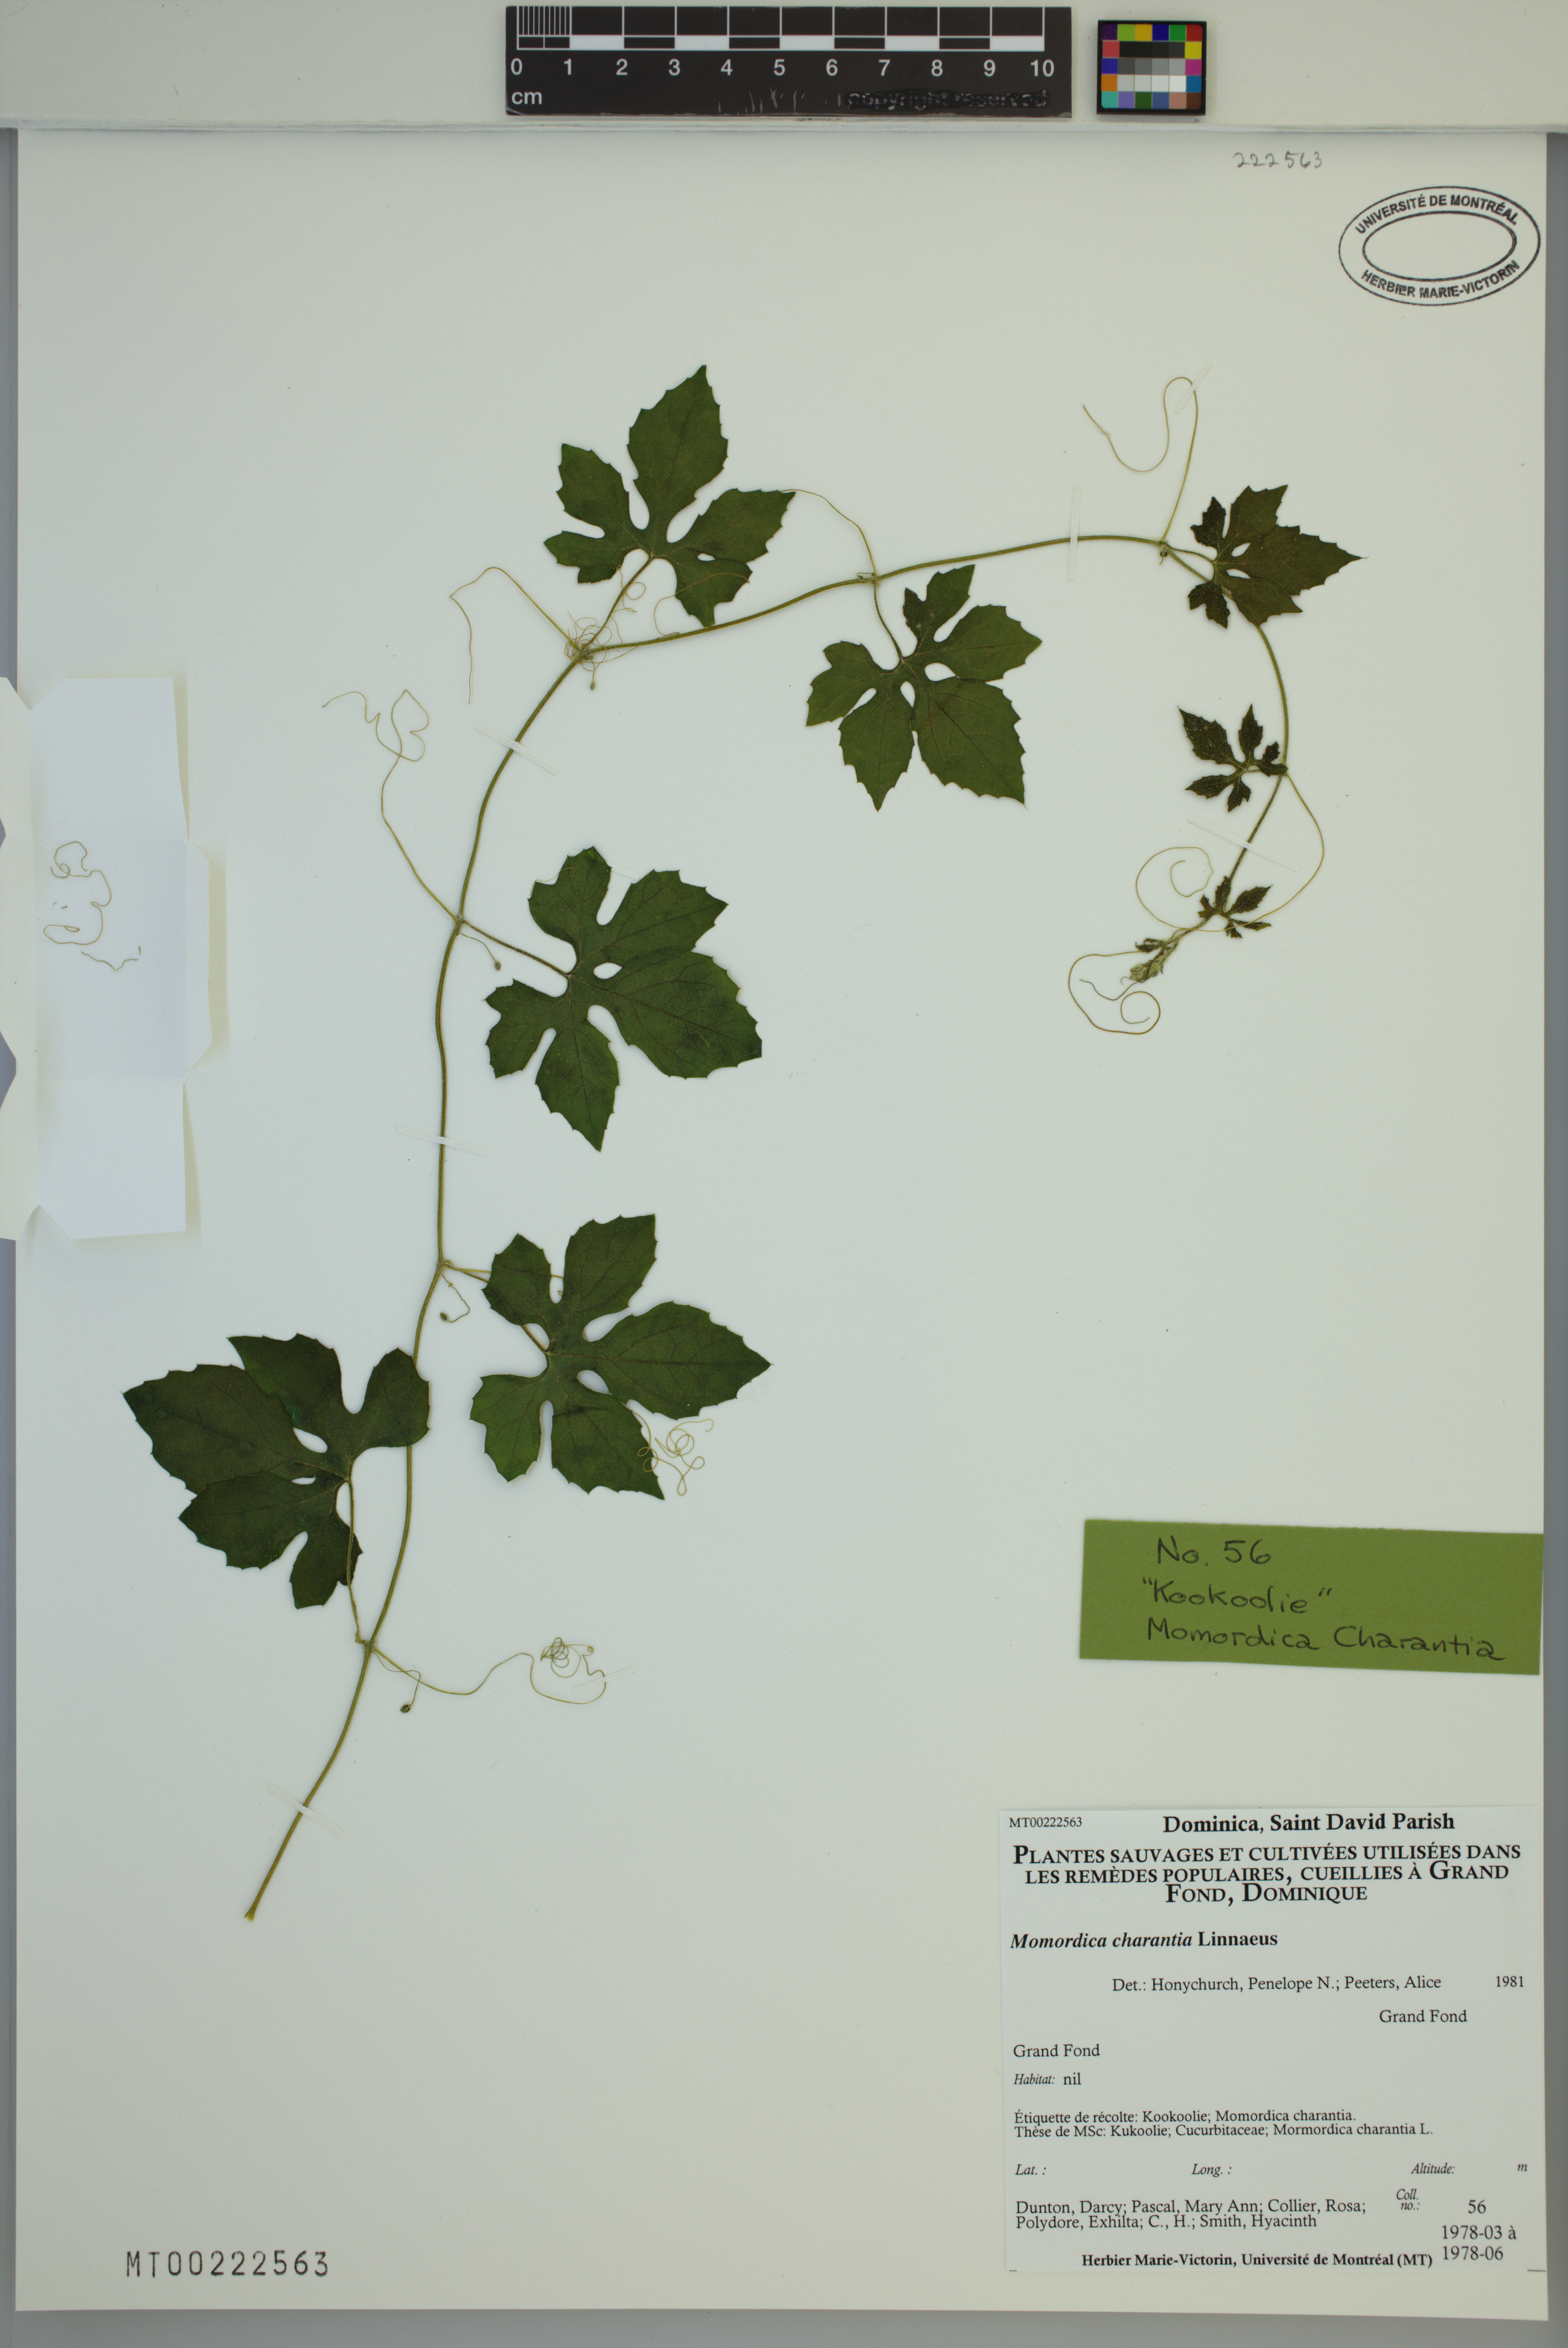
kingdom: Plantae
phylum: Tracheophyta
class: Magnoliopsida
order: Cucurbitales
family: Cucurbitaceae
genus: Momordica
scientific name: Momordica charantia
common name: Balsampear
